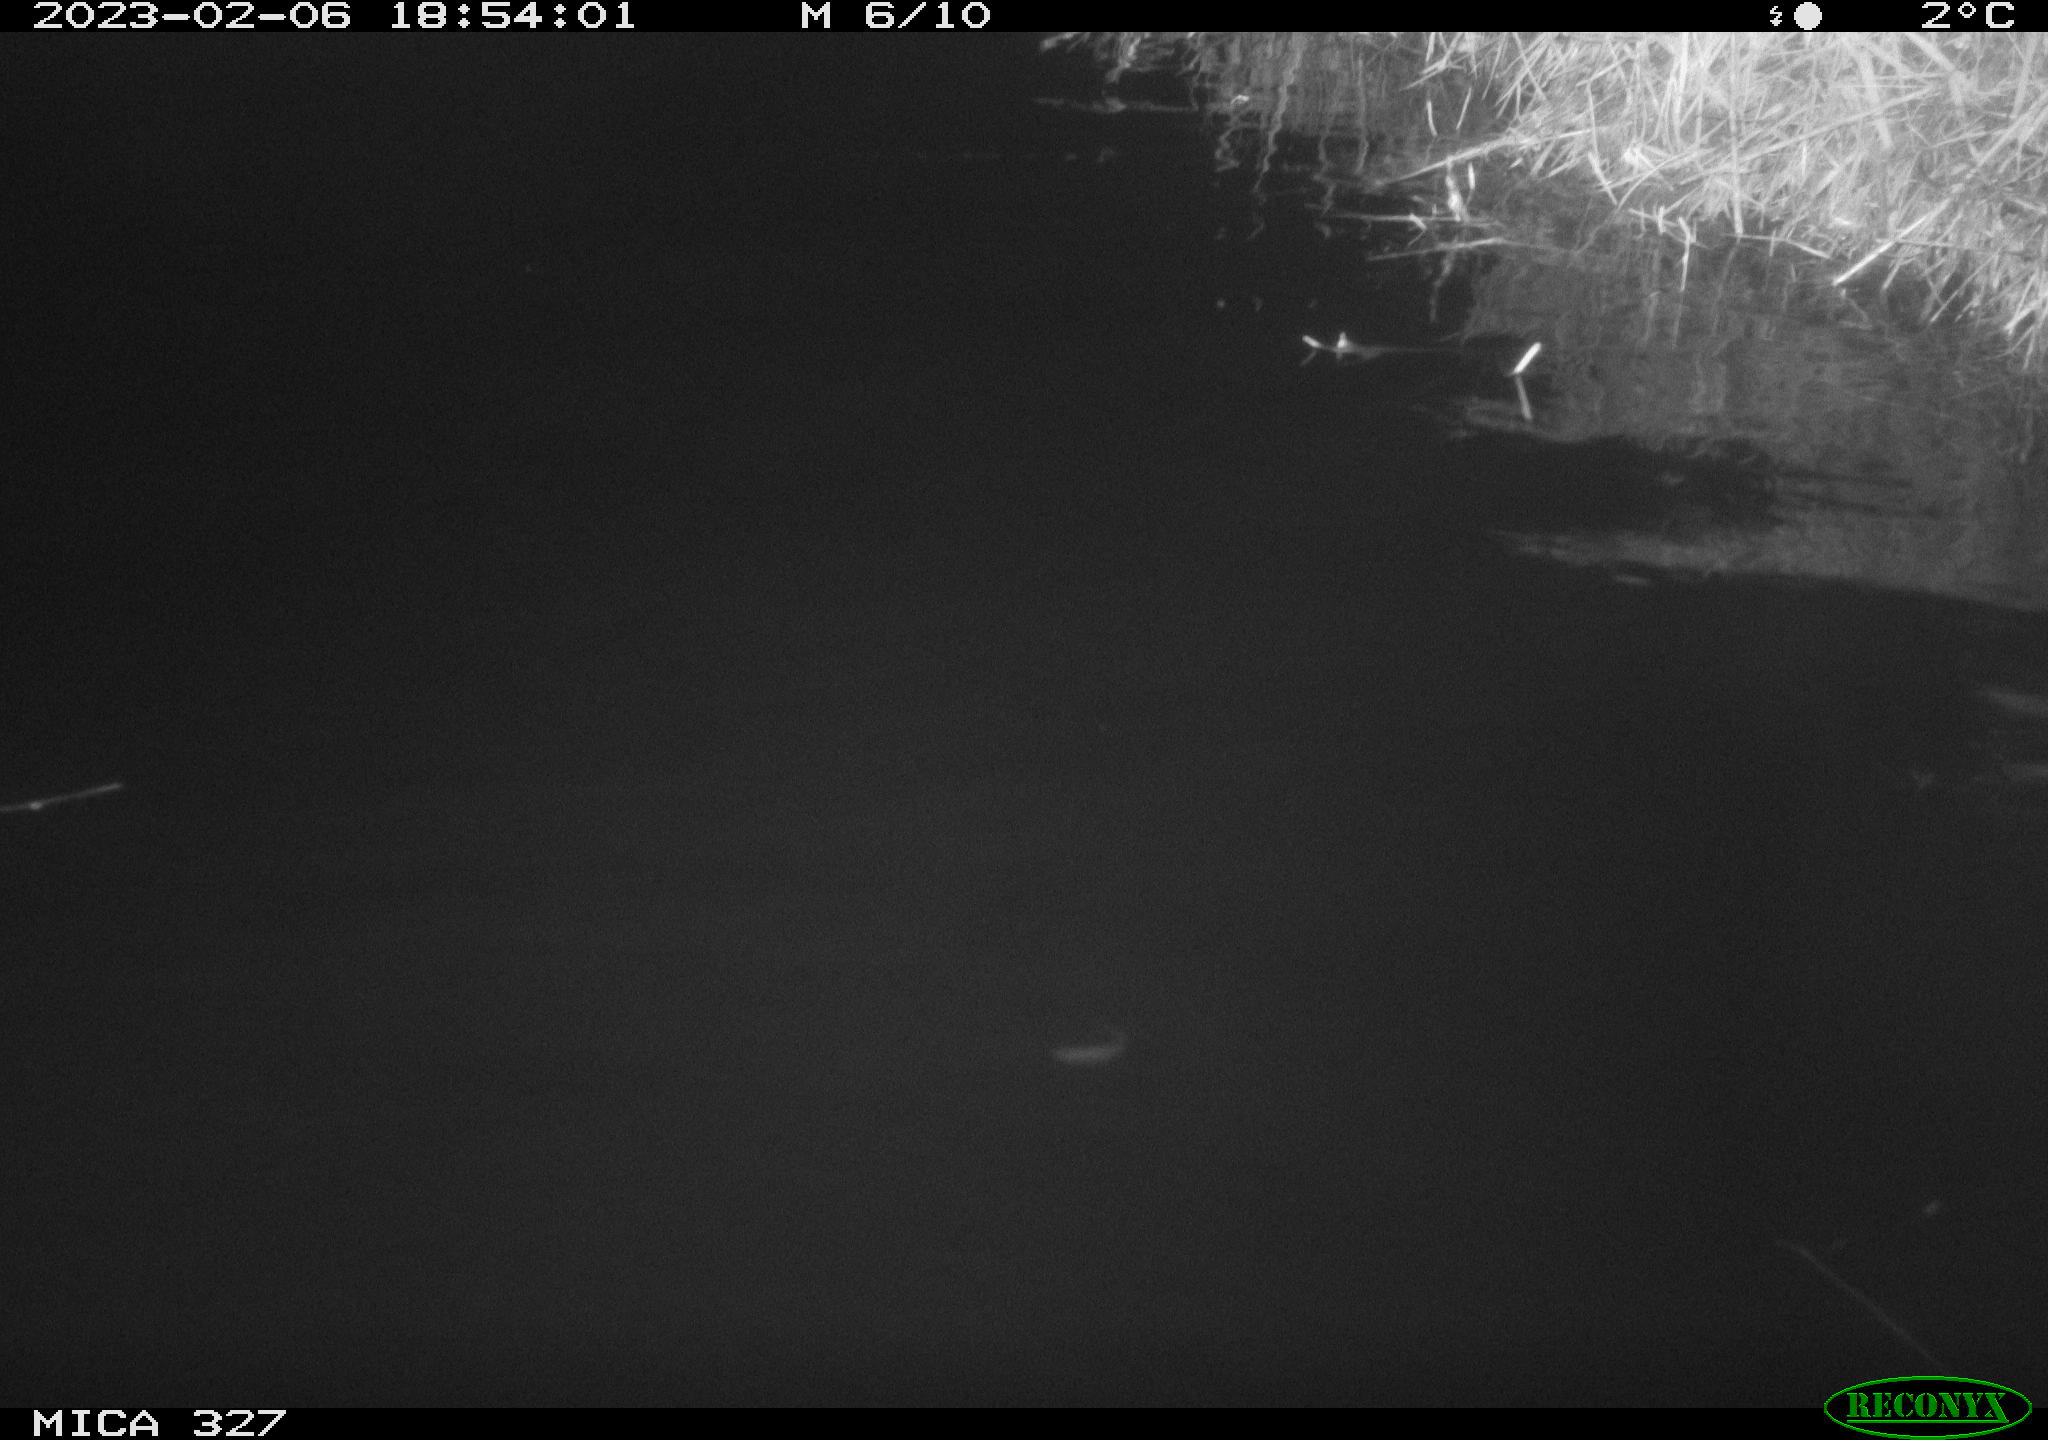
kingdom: Animalia
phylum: Chordata
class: Mammalia
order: Rodentia
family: Cricetidae
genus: Ondatra
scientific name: Ondatra zibethicus
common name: Muskrat
